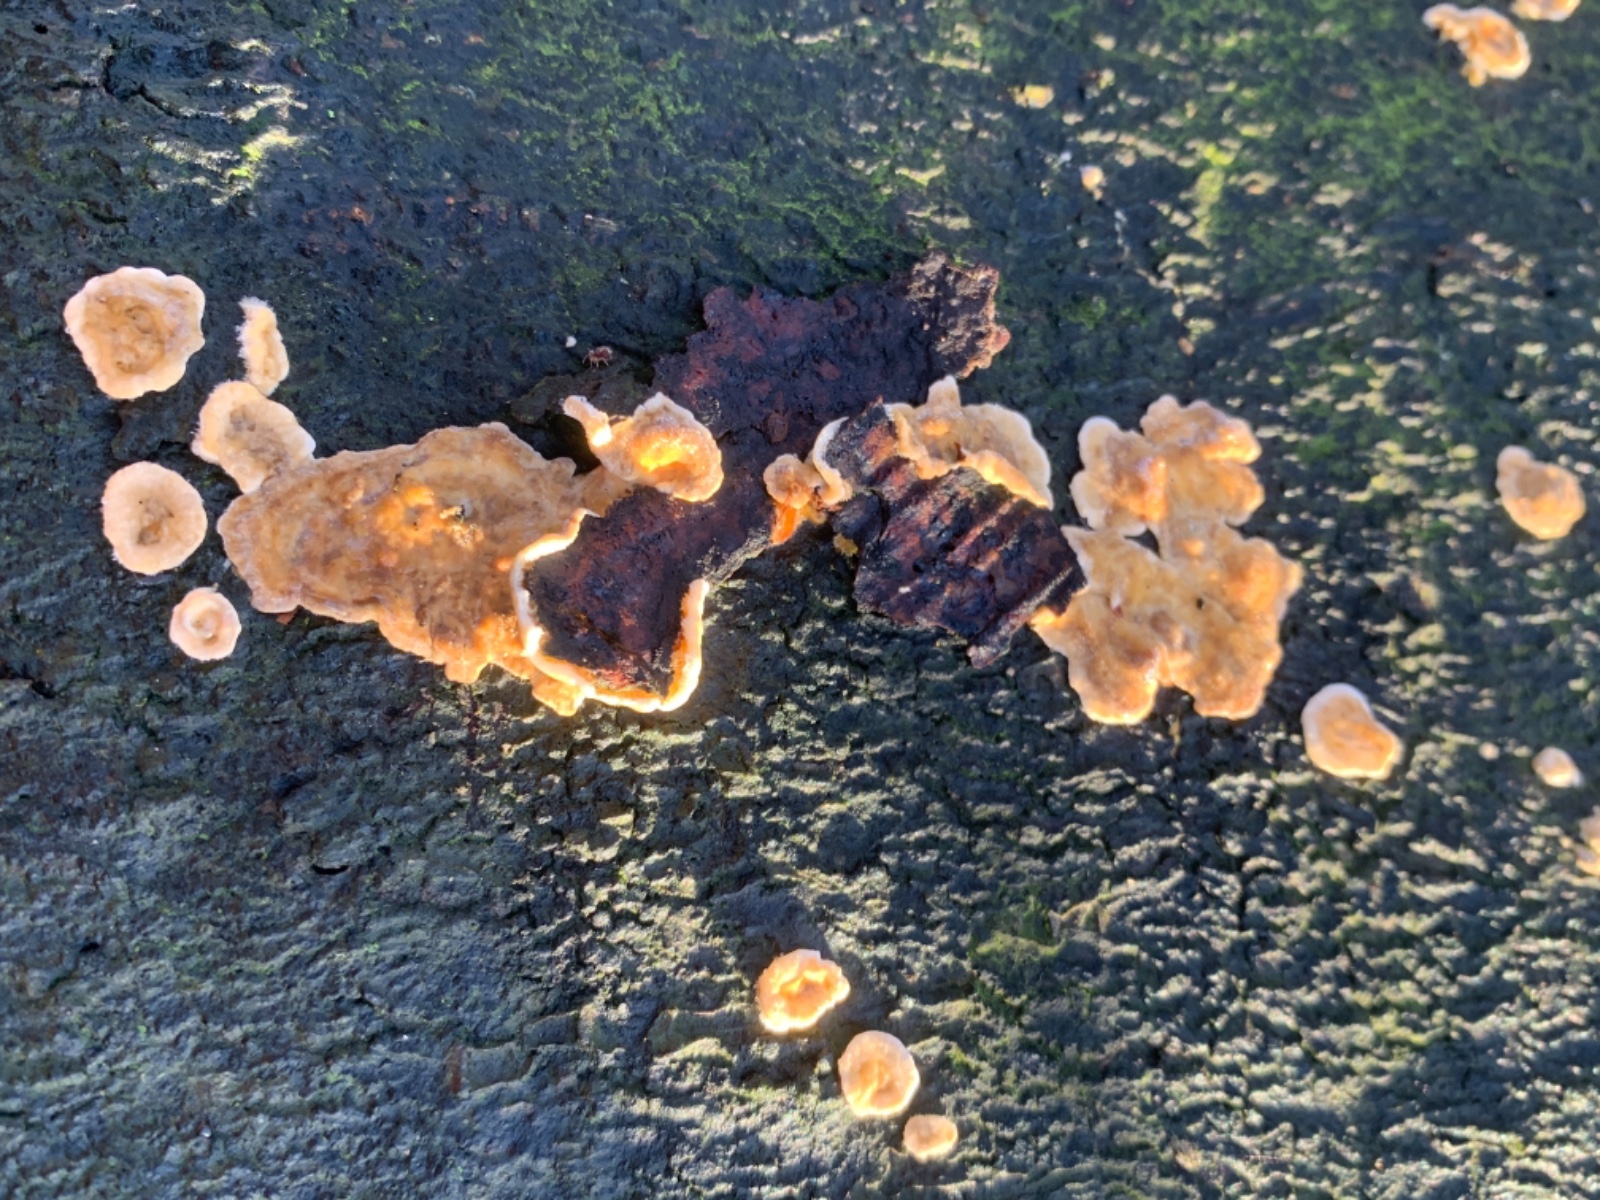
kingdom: Fungi
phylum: Basidiomycota
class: Agaricomycetes
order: Russulales
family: Stereaceae
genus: Stereum
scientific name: Stereum hirsutum
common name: håret lædersvamp
